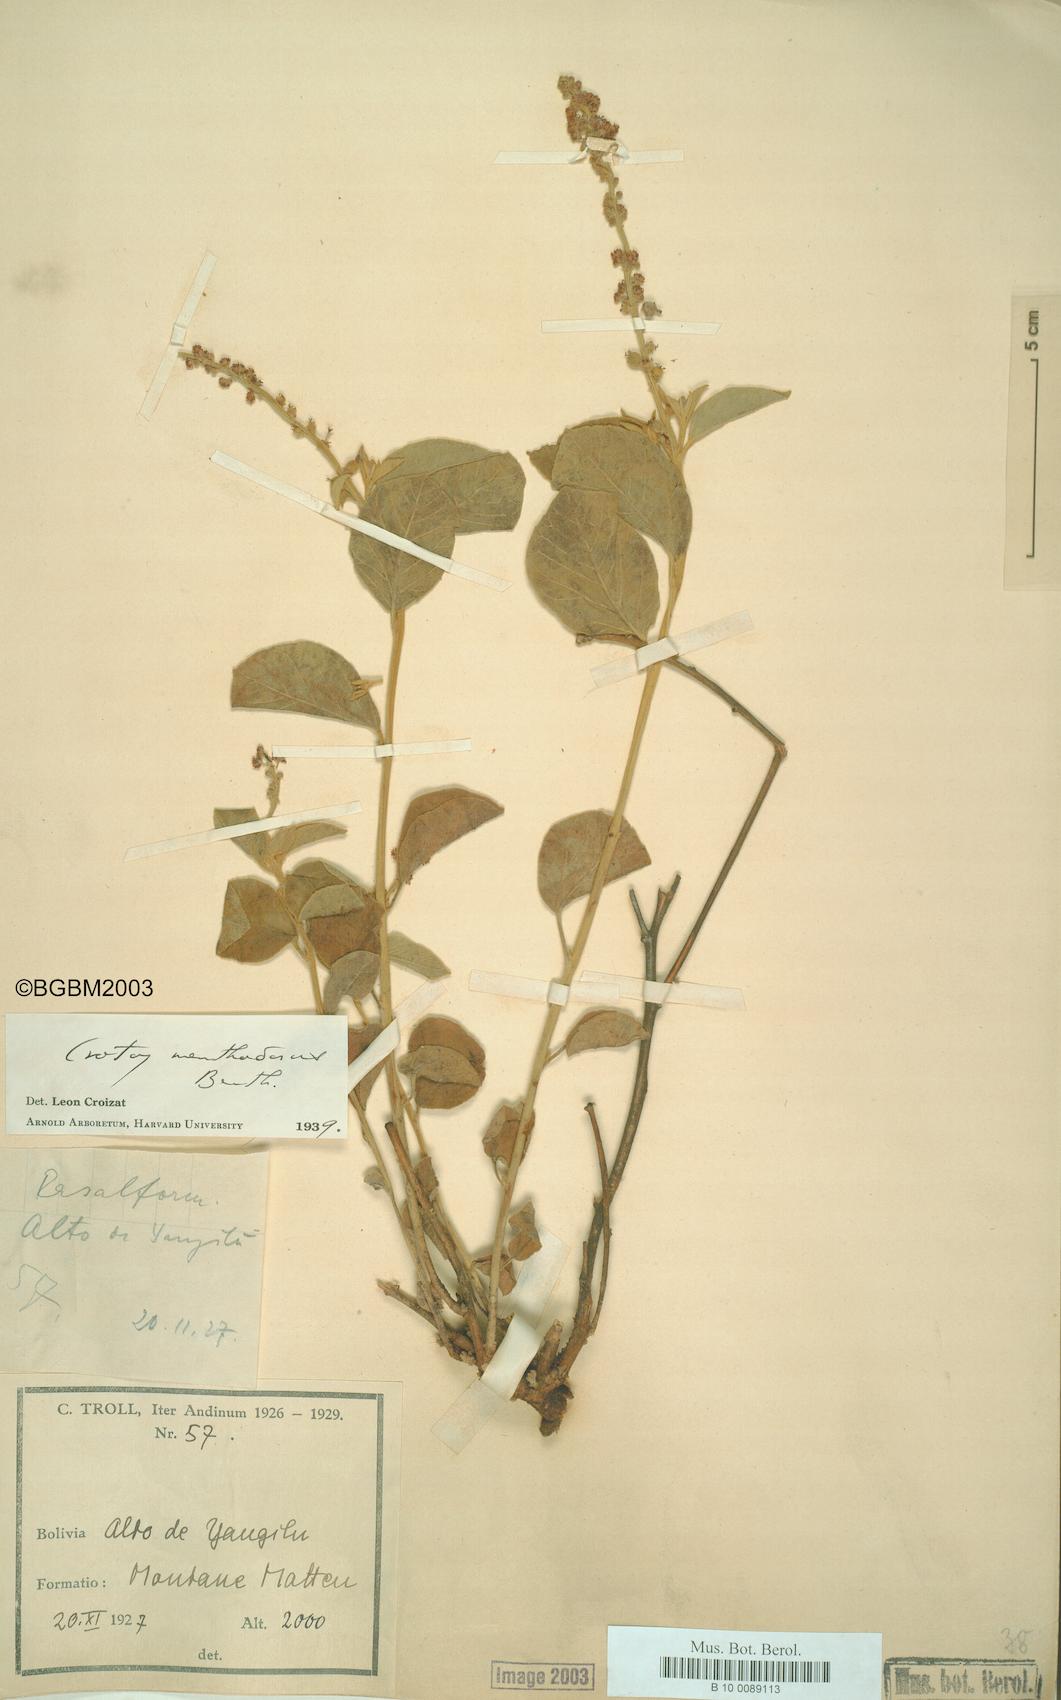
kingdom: Plantae
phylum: Tracheophyta
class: Magnoliopsida
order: Malpighiales
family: Euphorbiaceae
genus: Croton
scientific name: Croton menthodorus
